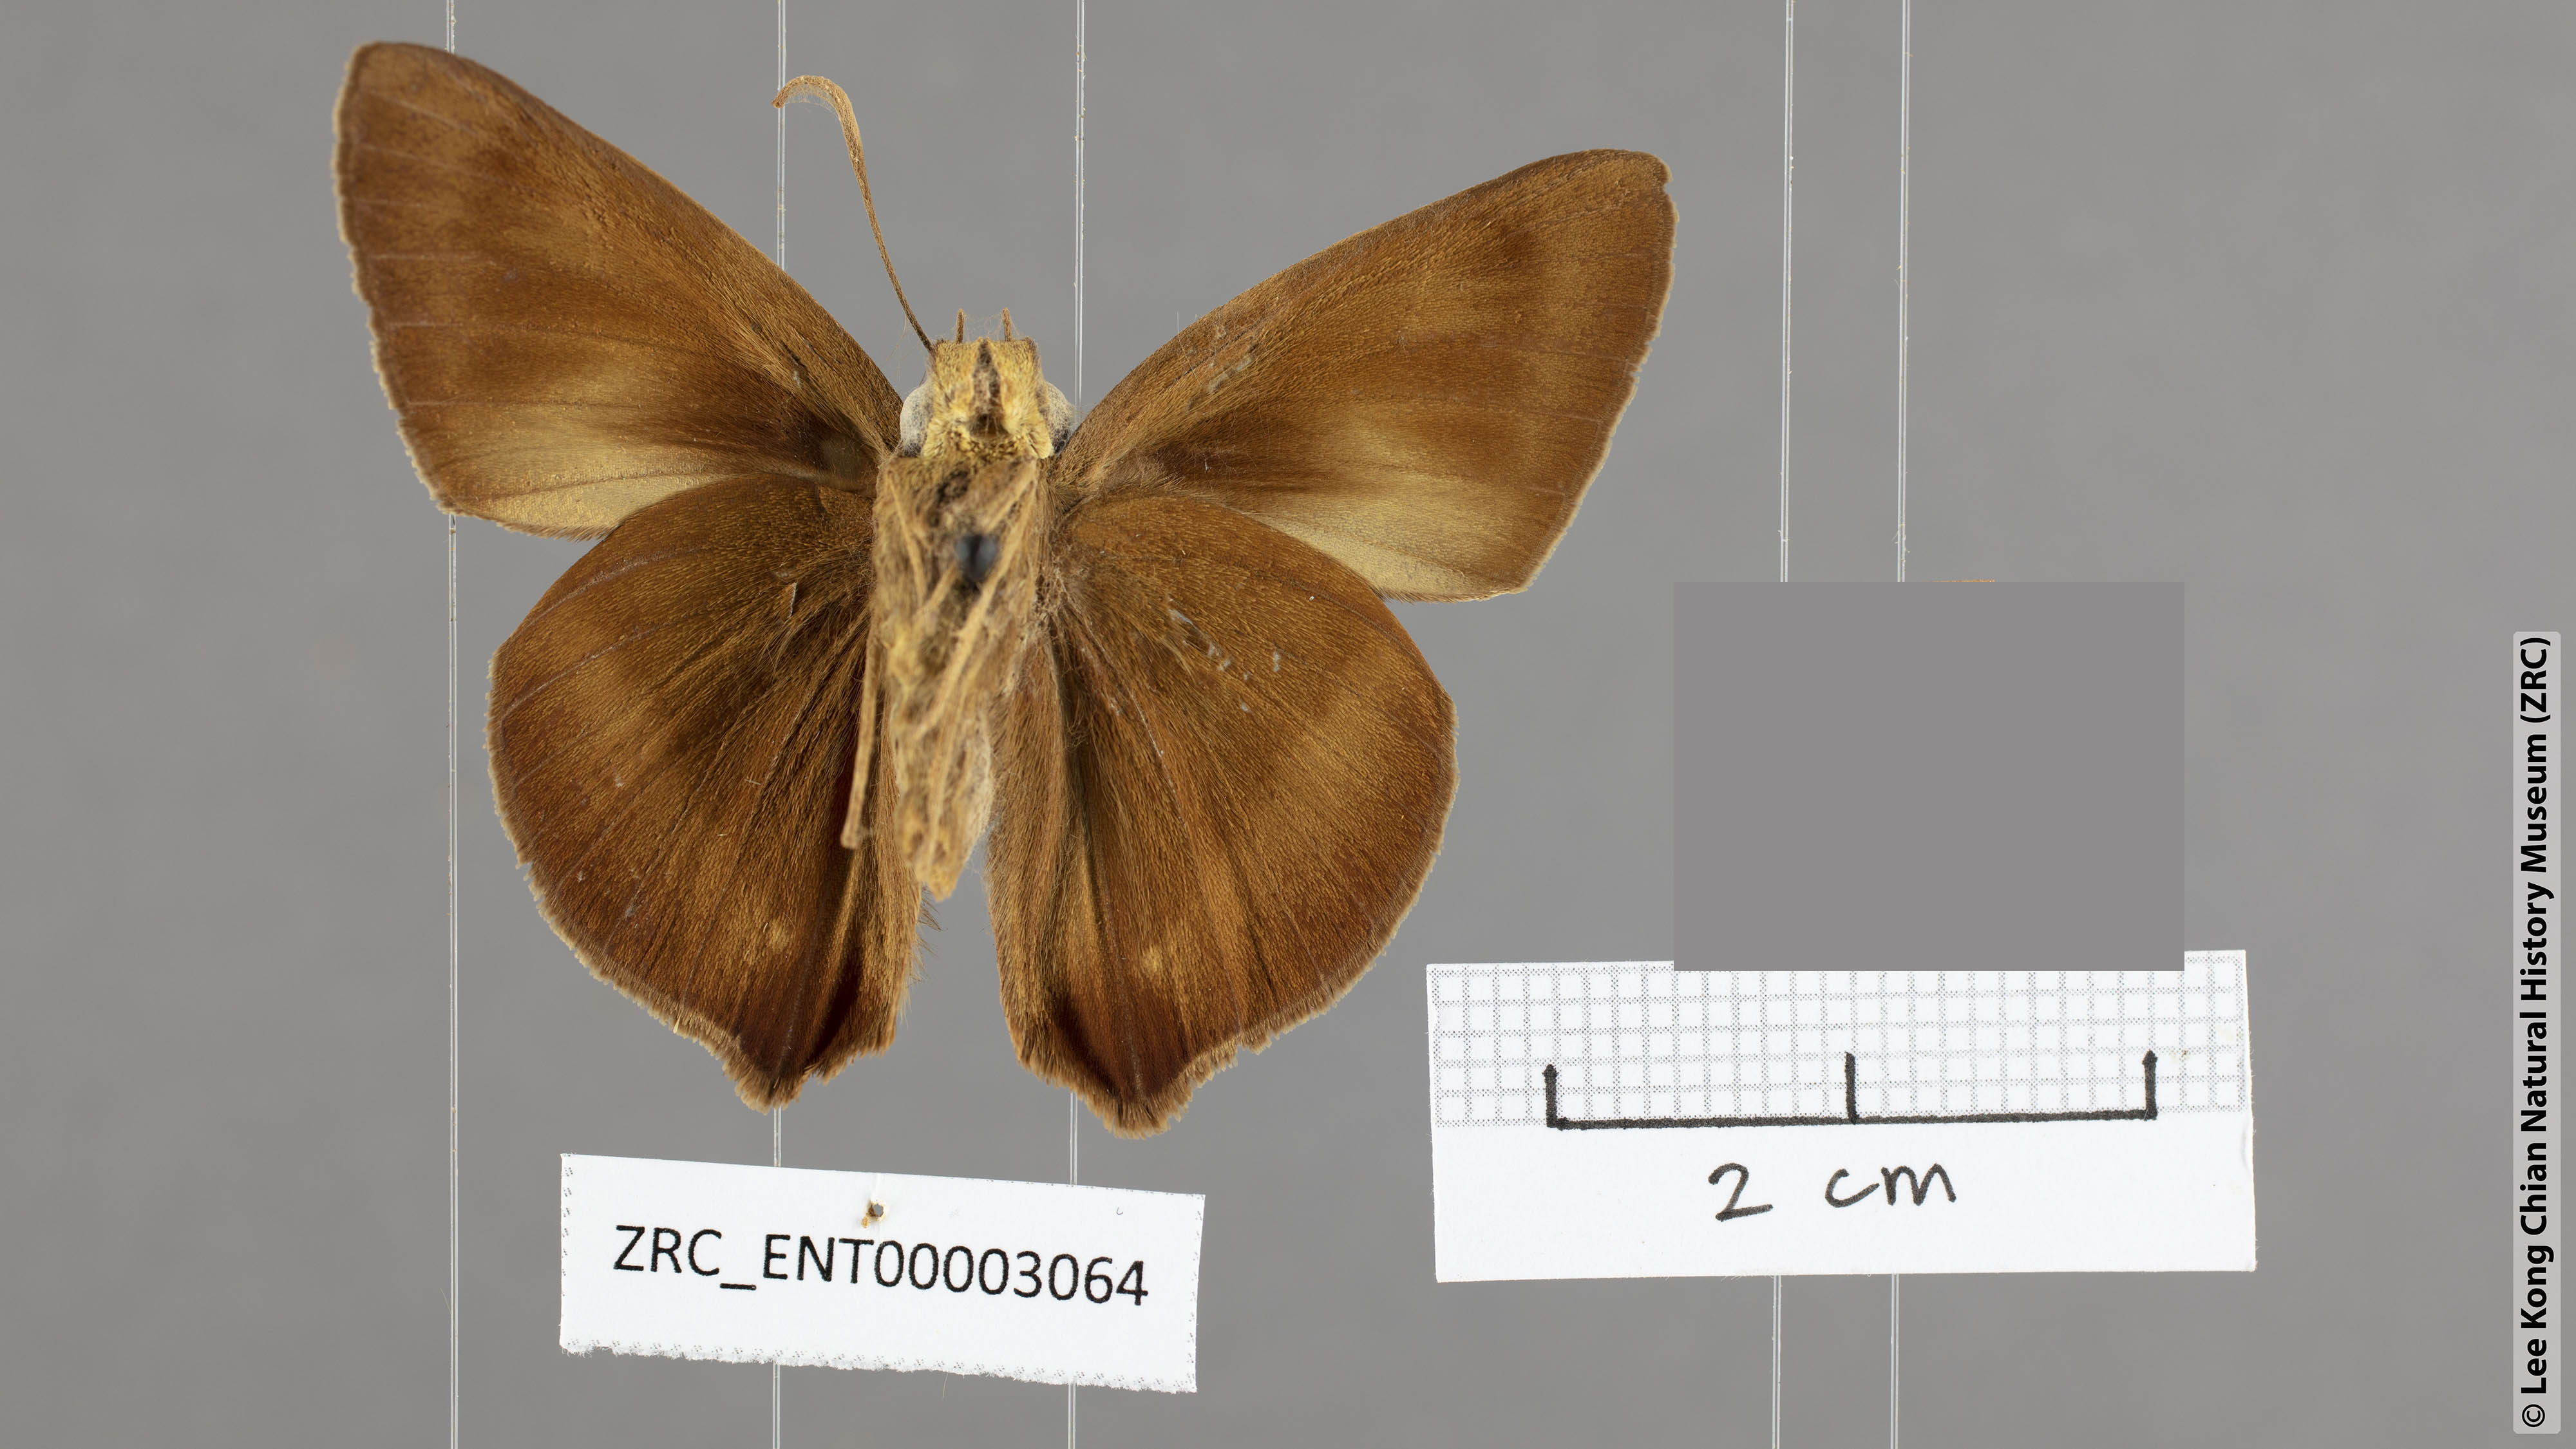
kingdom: Animalia
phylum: Arthropoda
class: Insecta
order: Lepidoptera
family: Hesperiidae
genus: Hasora
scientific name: Hasora mixta
